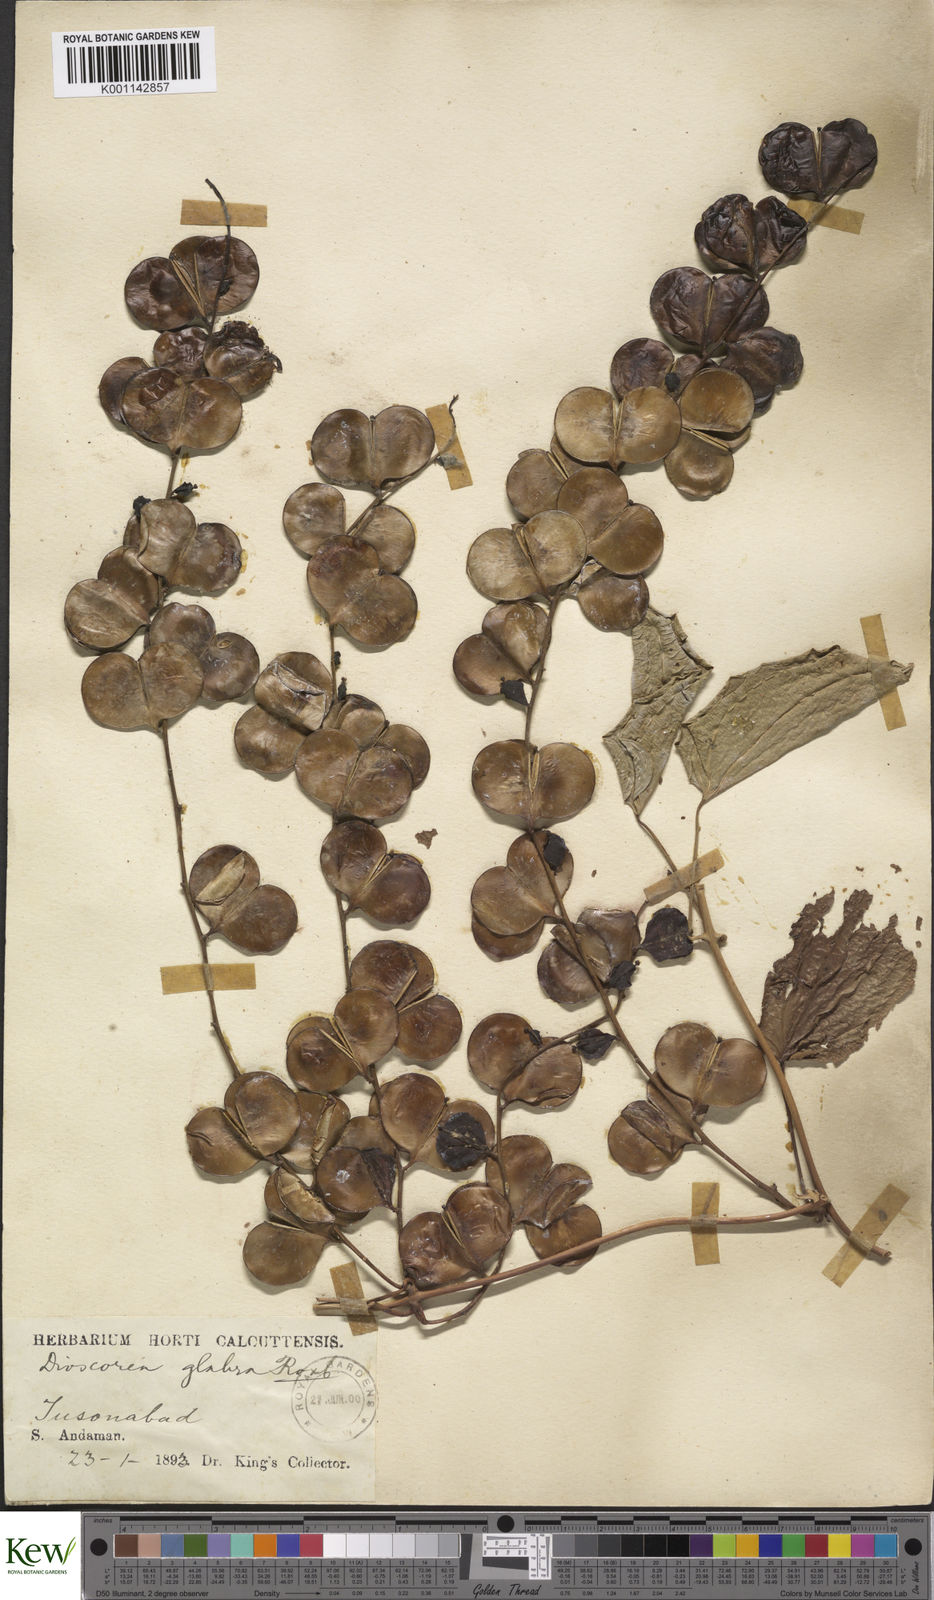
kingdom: Plantae
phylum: Tracheophyta
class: Liliopsida
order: Dioscoreales
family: Dioscoreaceae
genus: Dioscorea
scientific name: Dioscorea glabra
